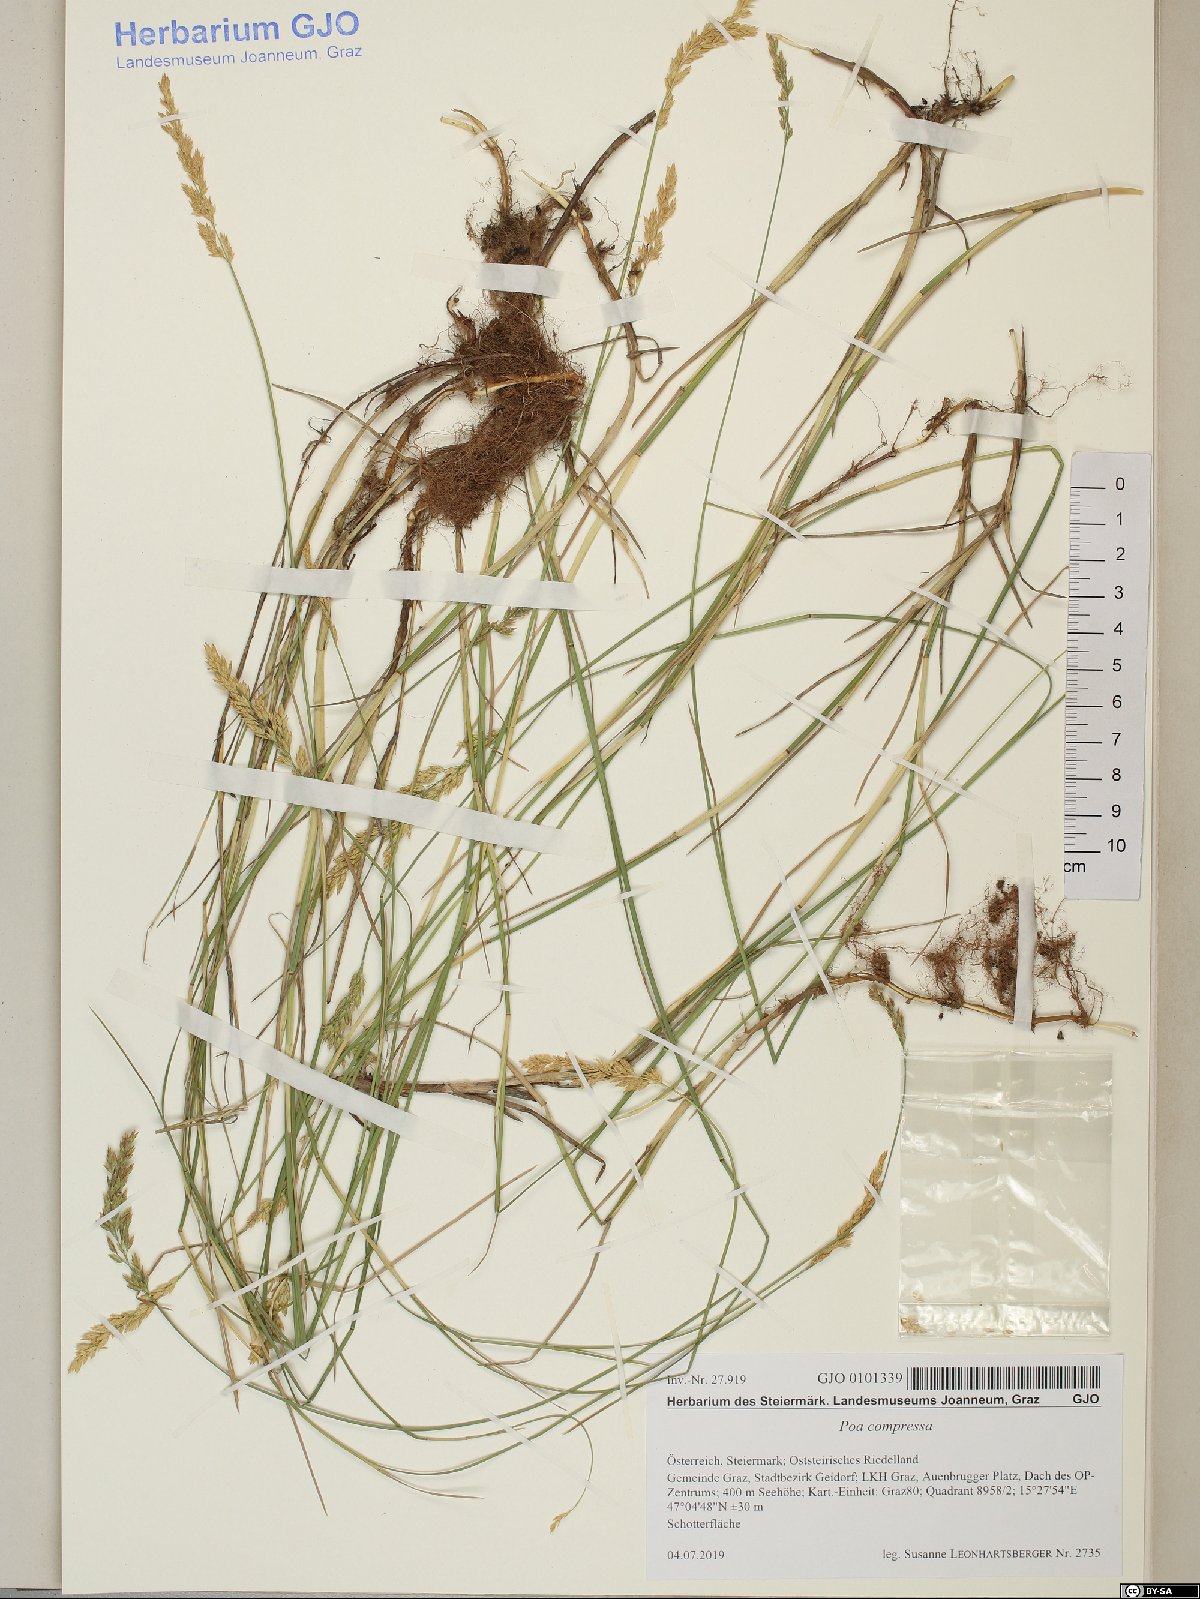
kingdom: Plantae
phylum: Tracheophyta
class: Liliopsida
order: Poales
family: Poaceae
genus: Poa
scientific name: Poa compressa
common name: Canada bluegrass
